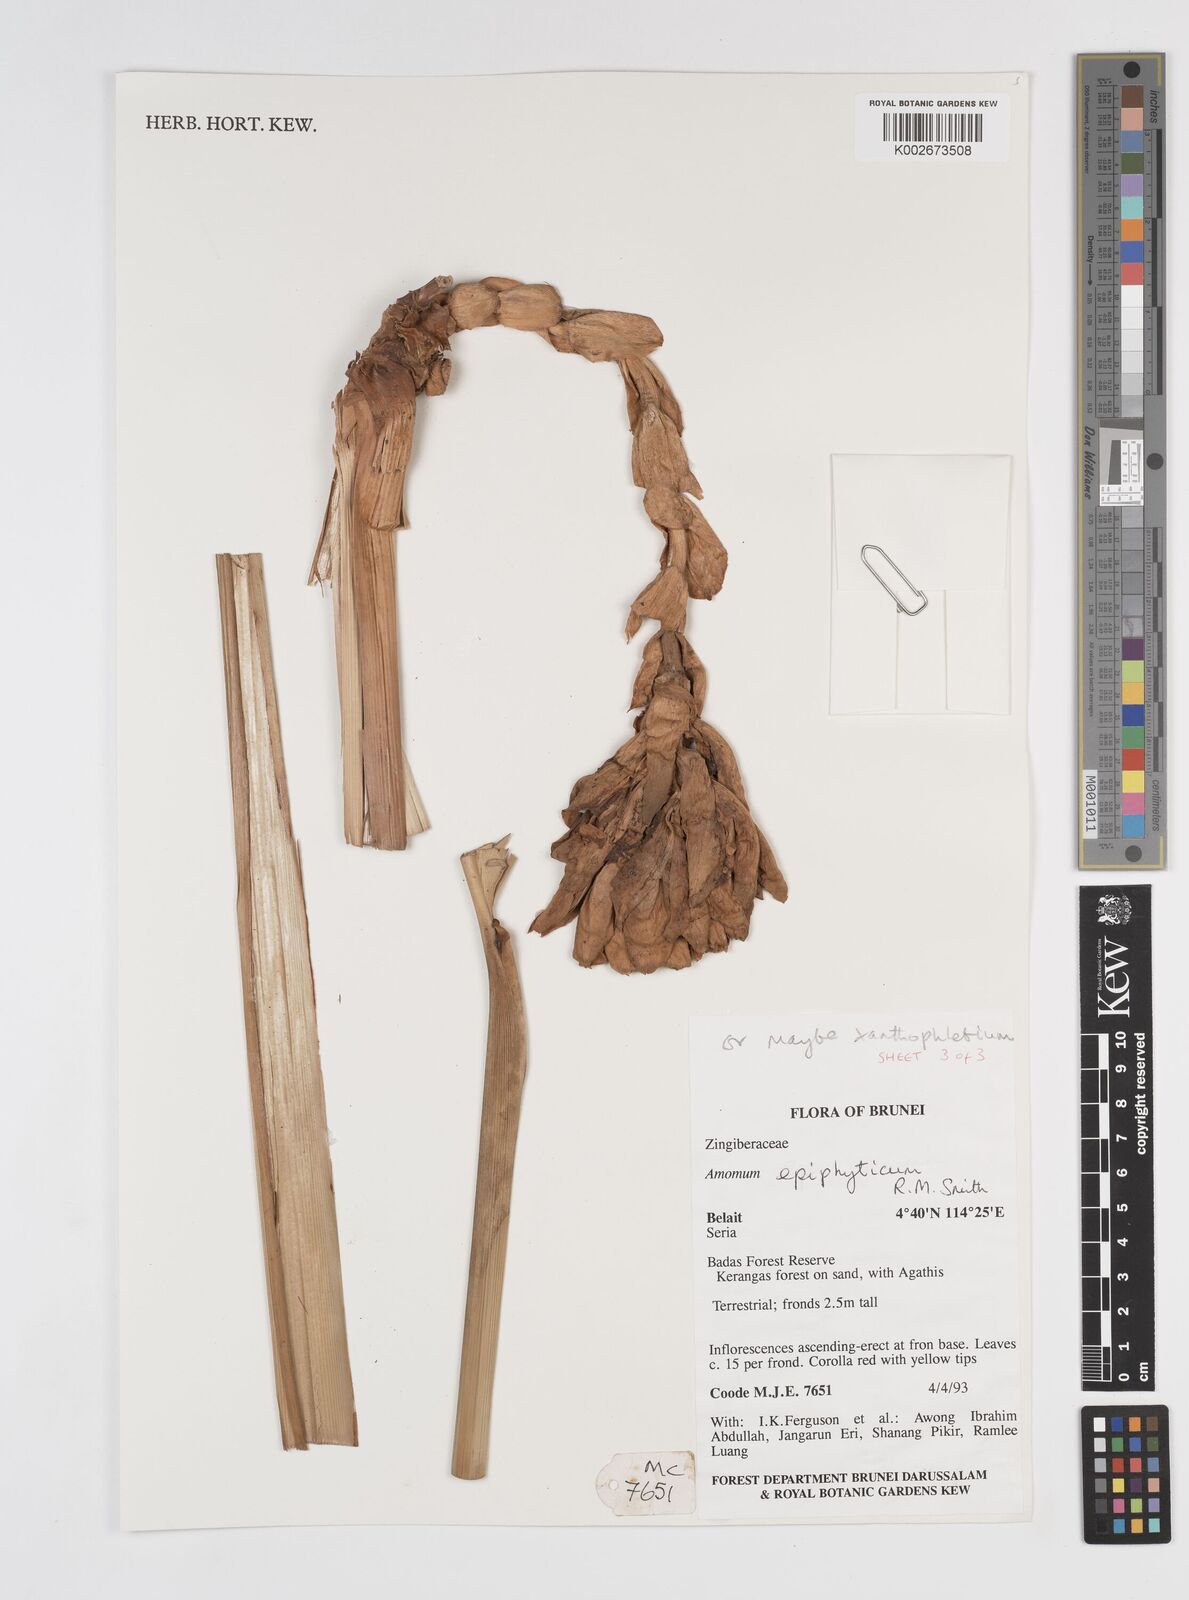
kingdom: Plantae
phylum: Tracheophyta
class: Liliopsida
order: Zingiberales
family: Zingiberaceae
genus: Conamomum
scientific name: Conamomum xanthophlebium
